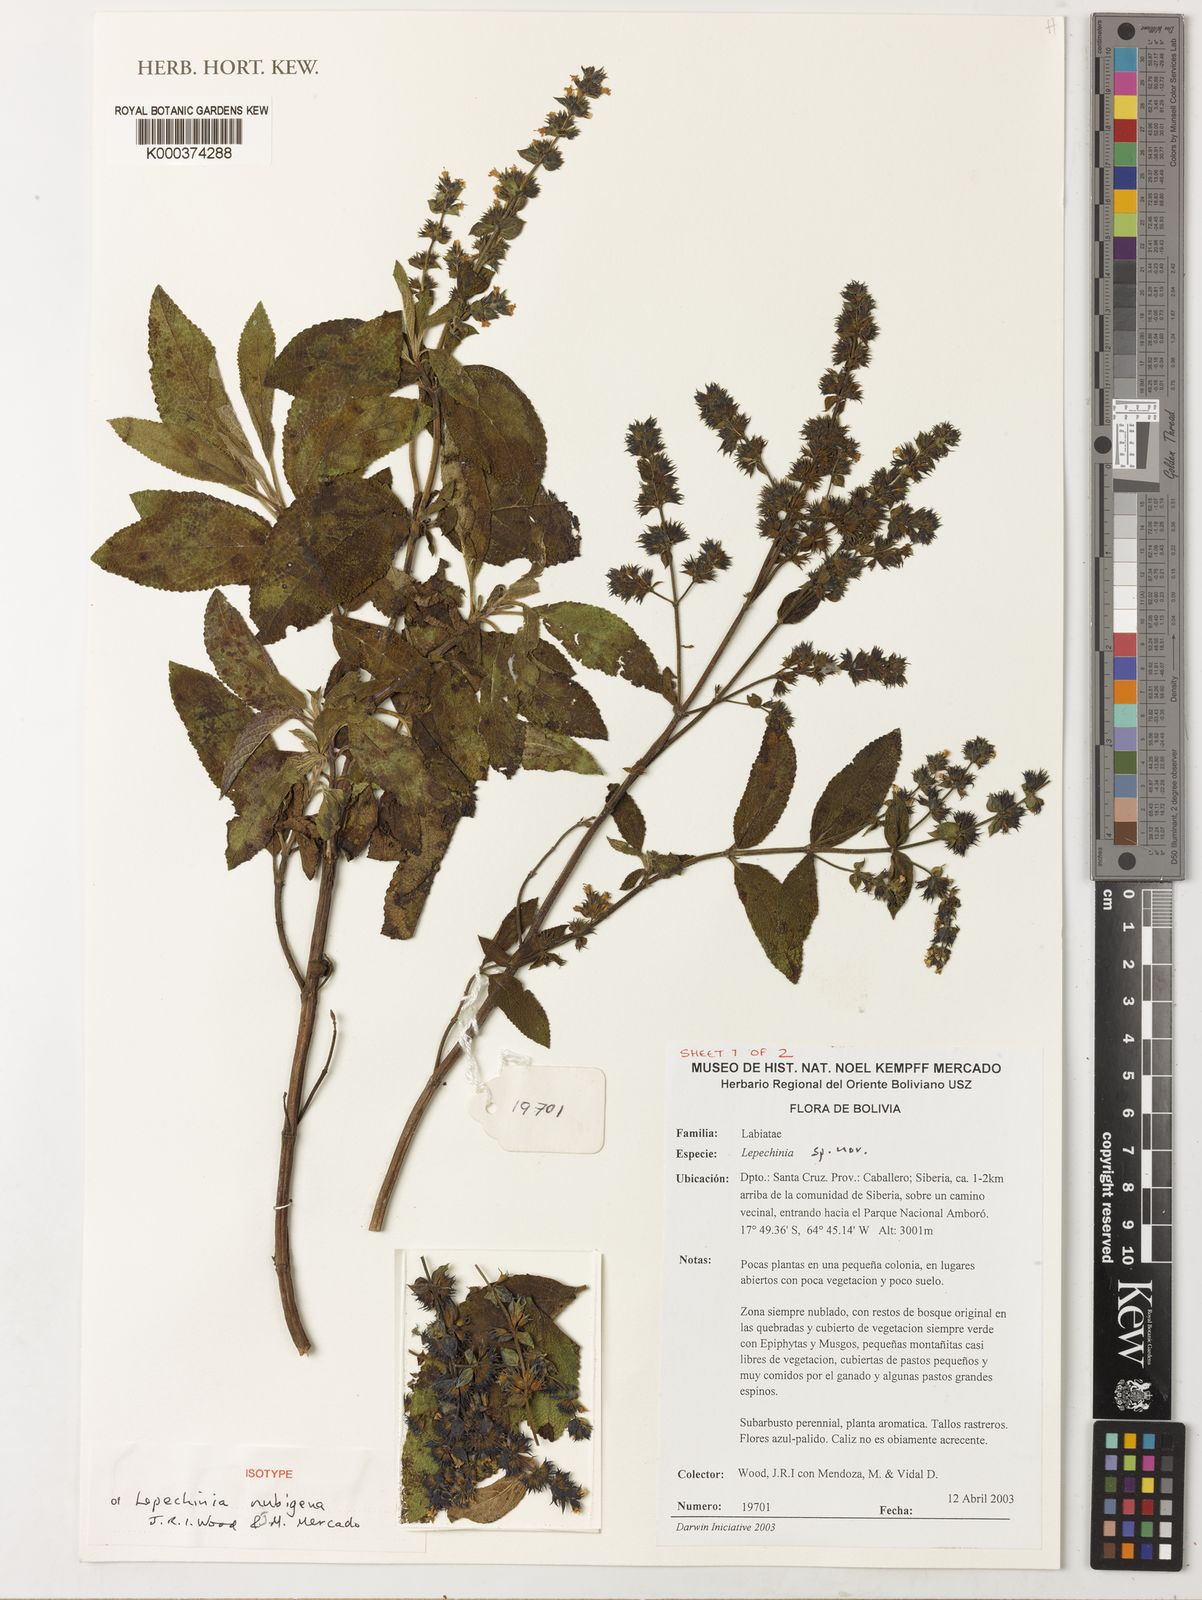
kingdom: Plantae
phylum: Tracheophyta
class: Magnoliopsida
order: Lamiales
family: Lamiaceae
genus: Lepechinia
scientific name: Lepechinia nubigena
